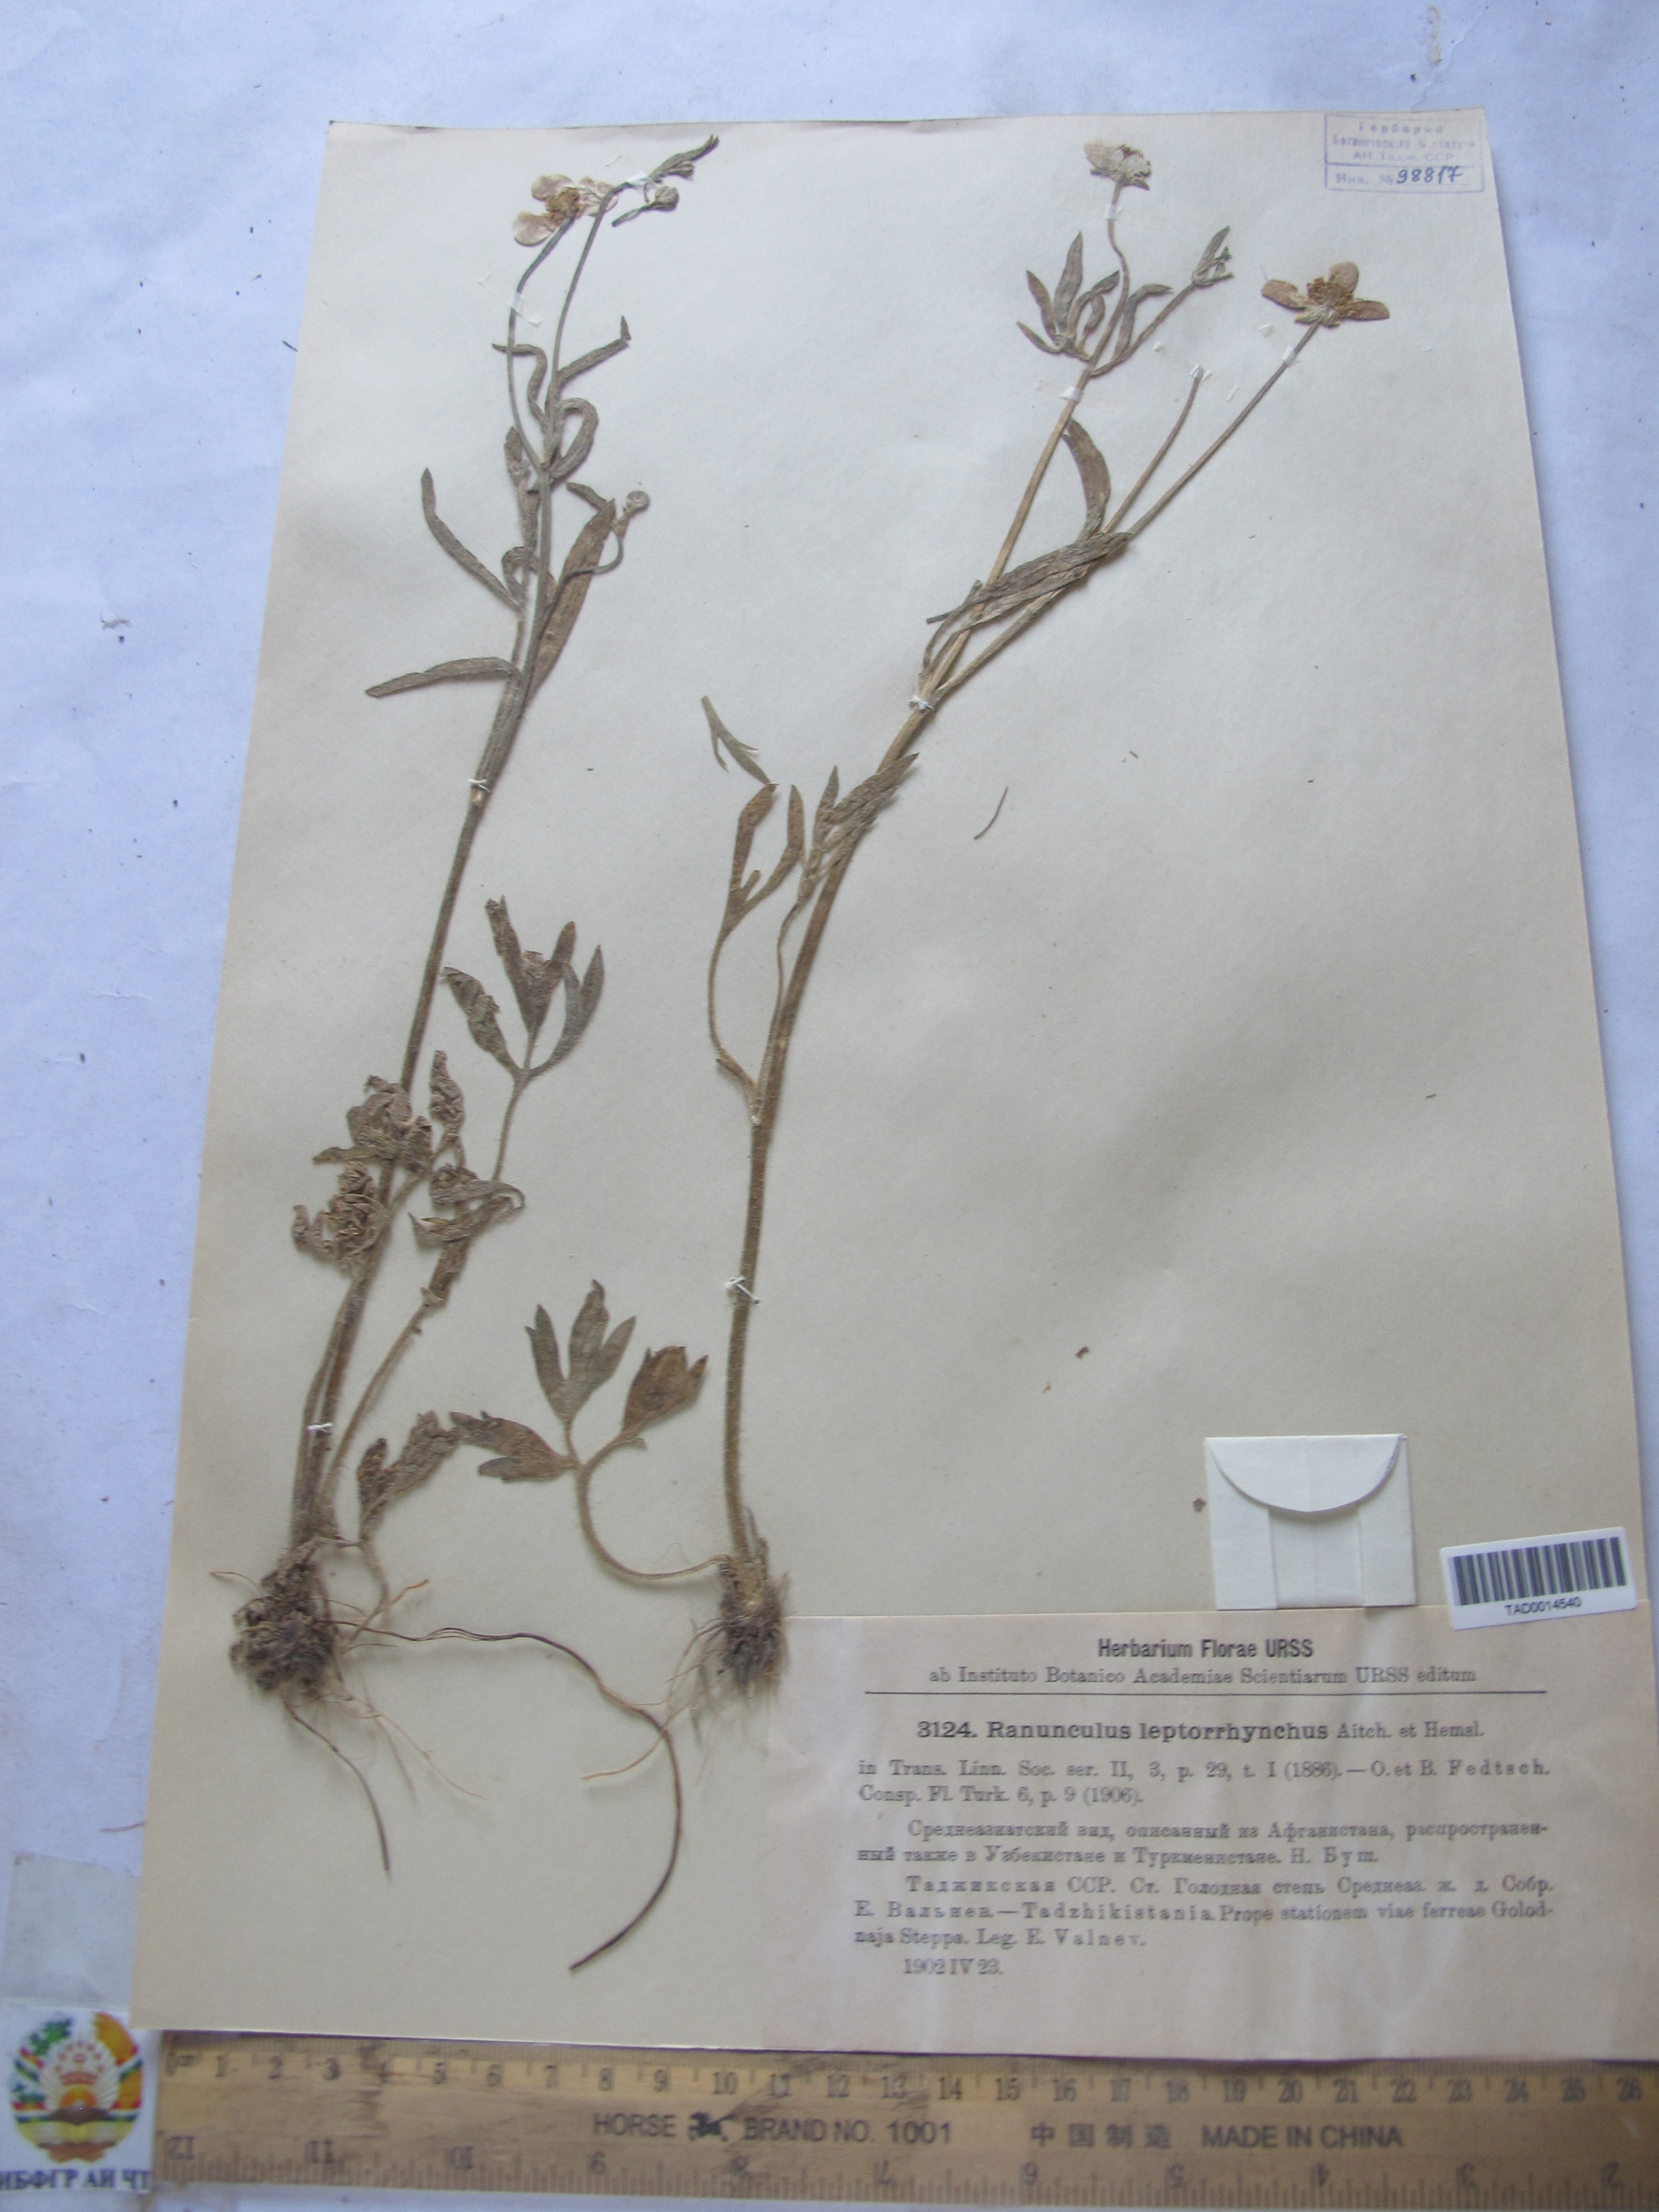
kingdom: Plantae
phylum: Tracheophyta
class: Magnoliopsida
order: Ranunculales
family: Ranunculaceae
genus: Ranunculus
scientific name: Ranunculus leptorrhynchus
